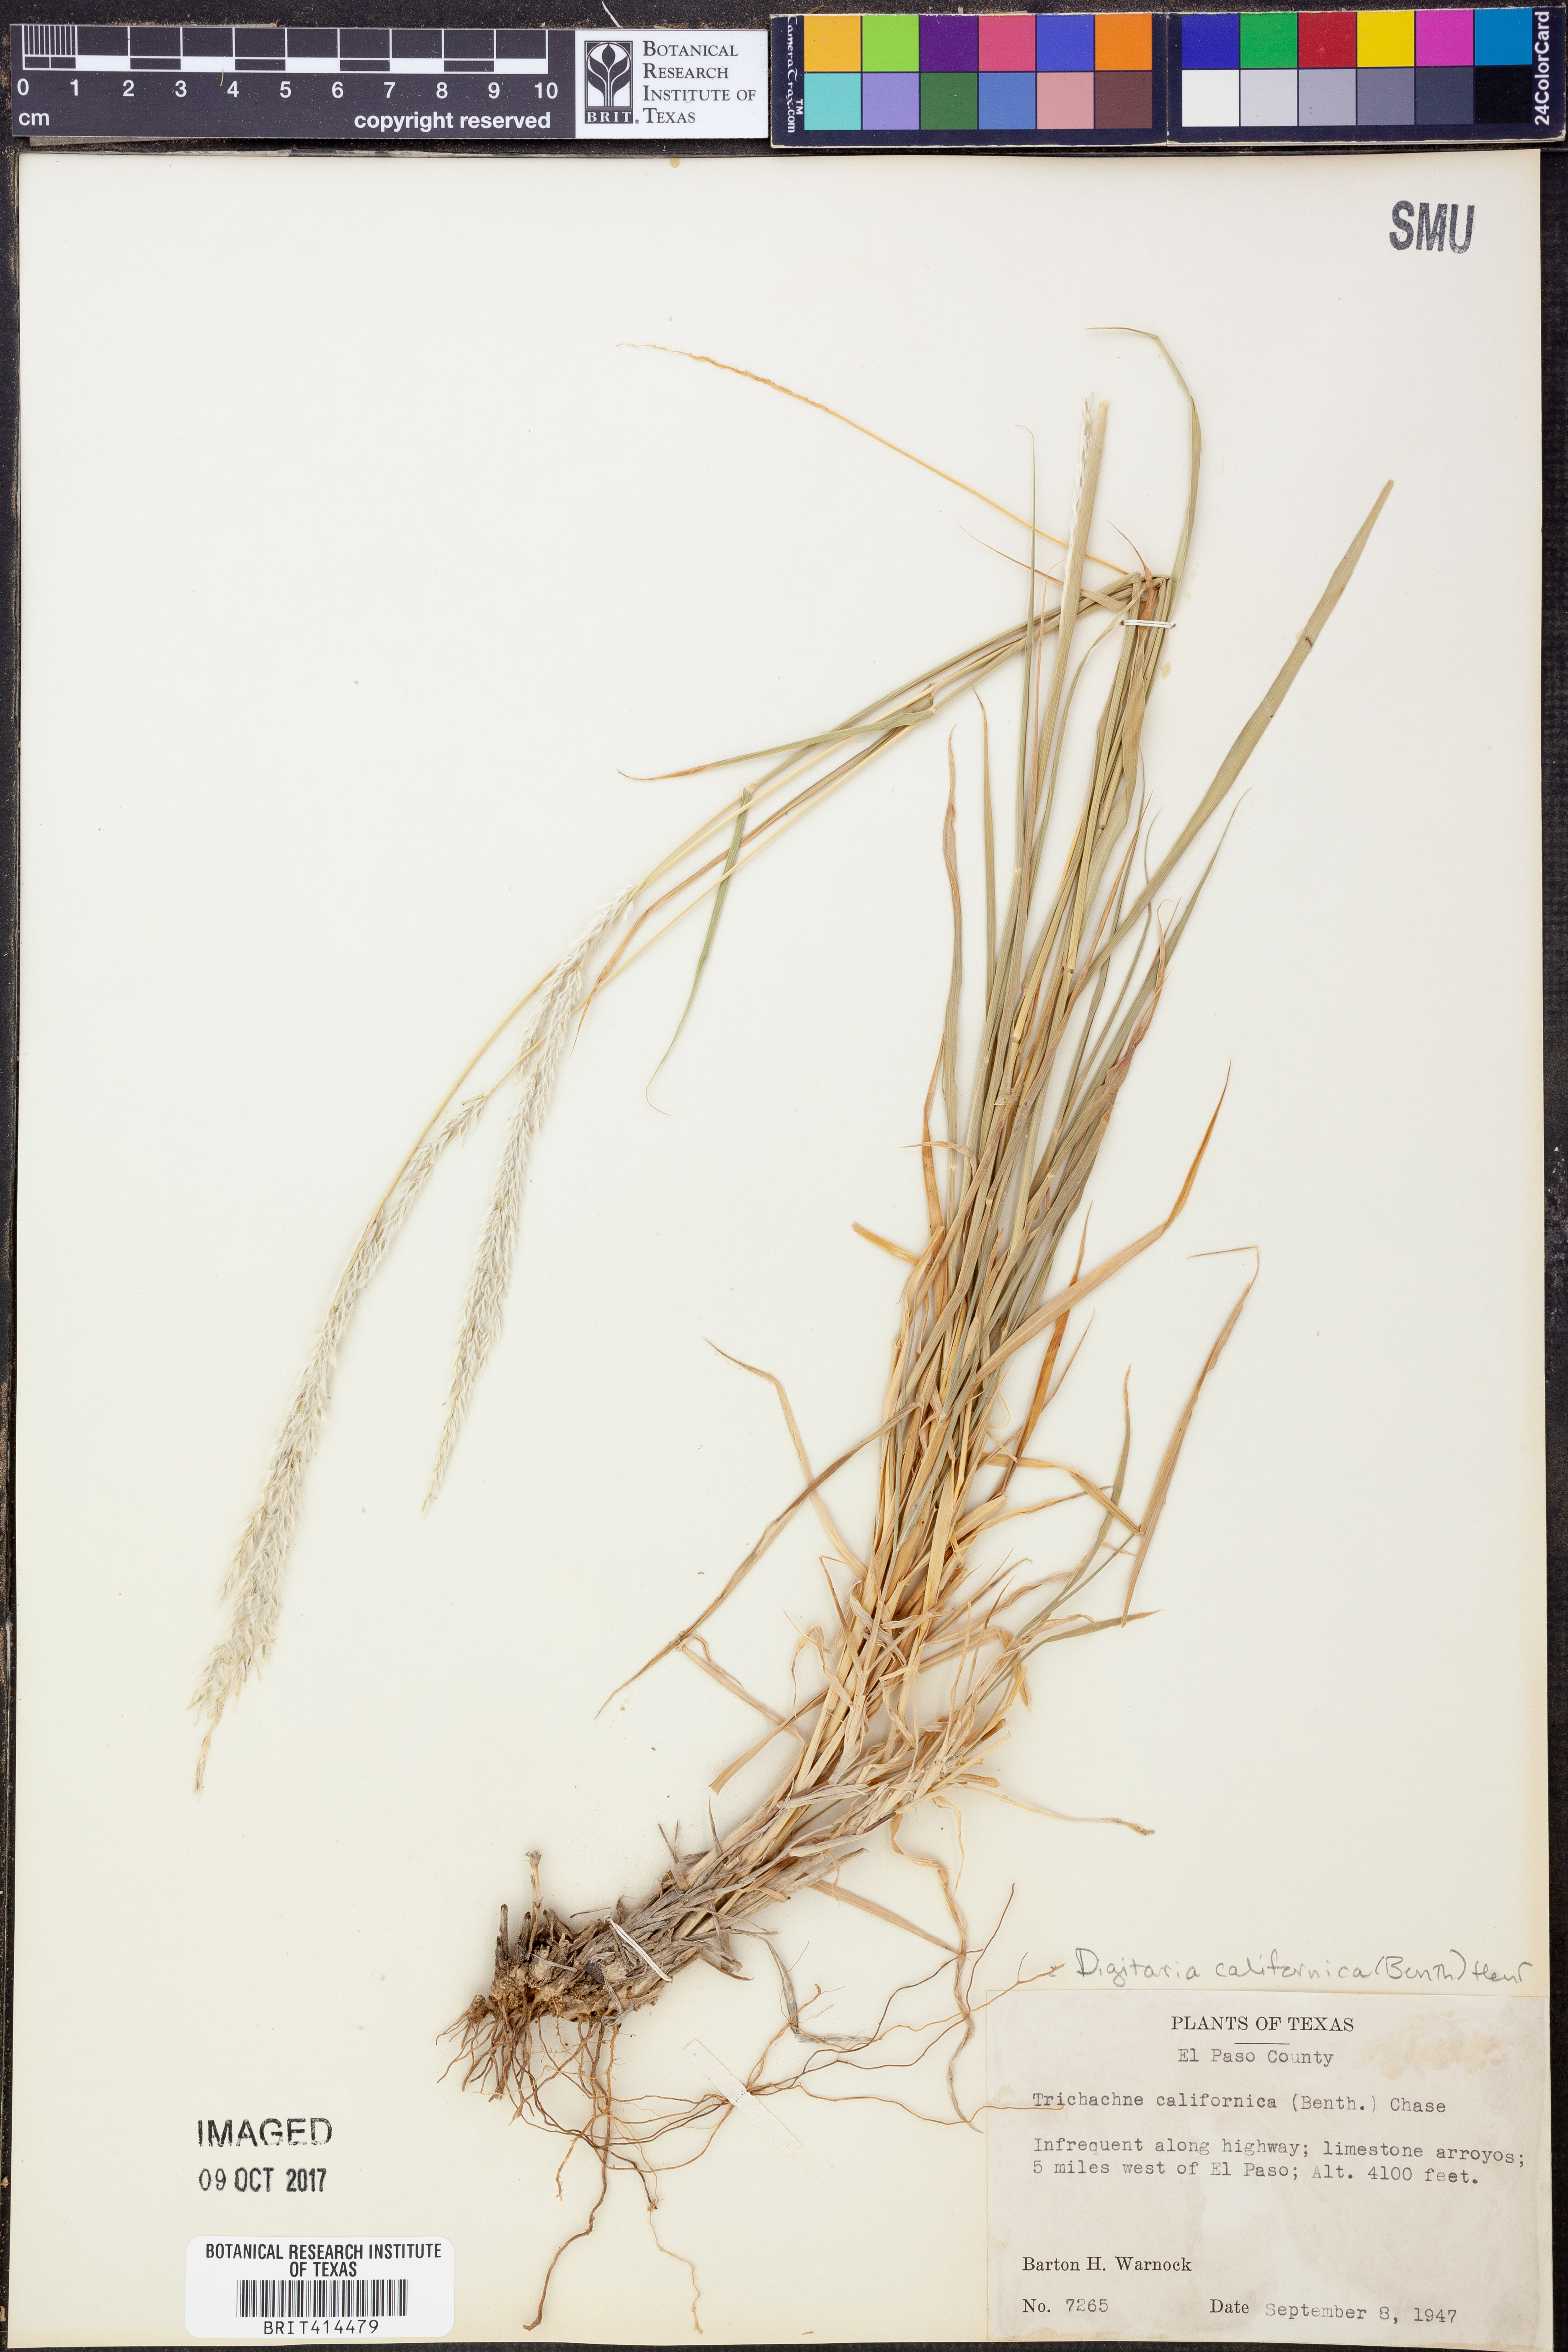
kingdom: Plantae
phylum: Tracheophyta
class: Liliopsida
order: Poales
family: Poaceae
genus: Digitaria
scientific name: Digitaria californica
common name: Arizona cottontop
